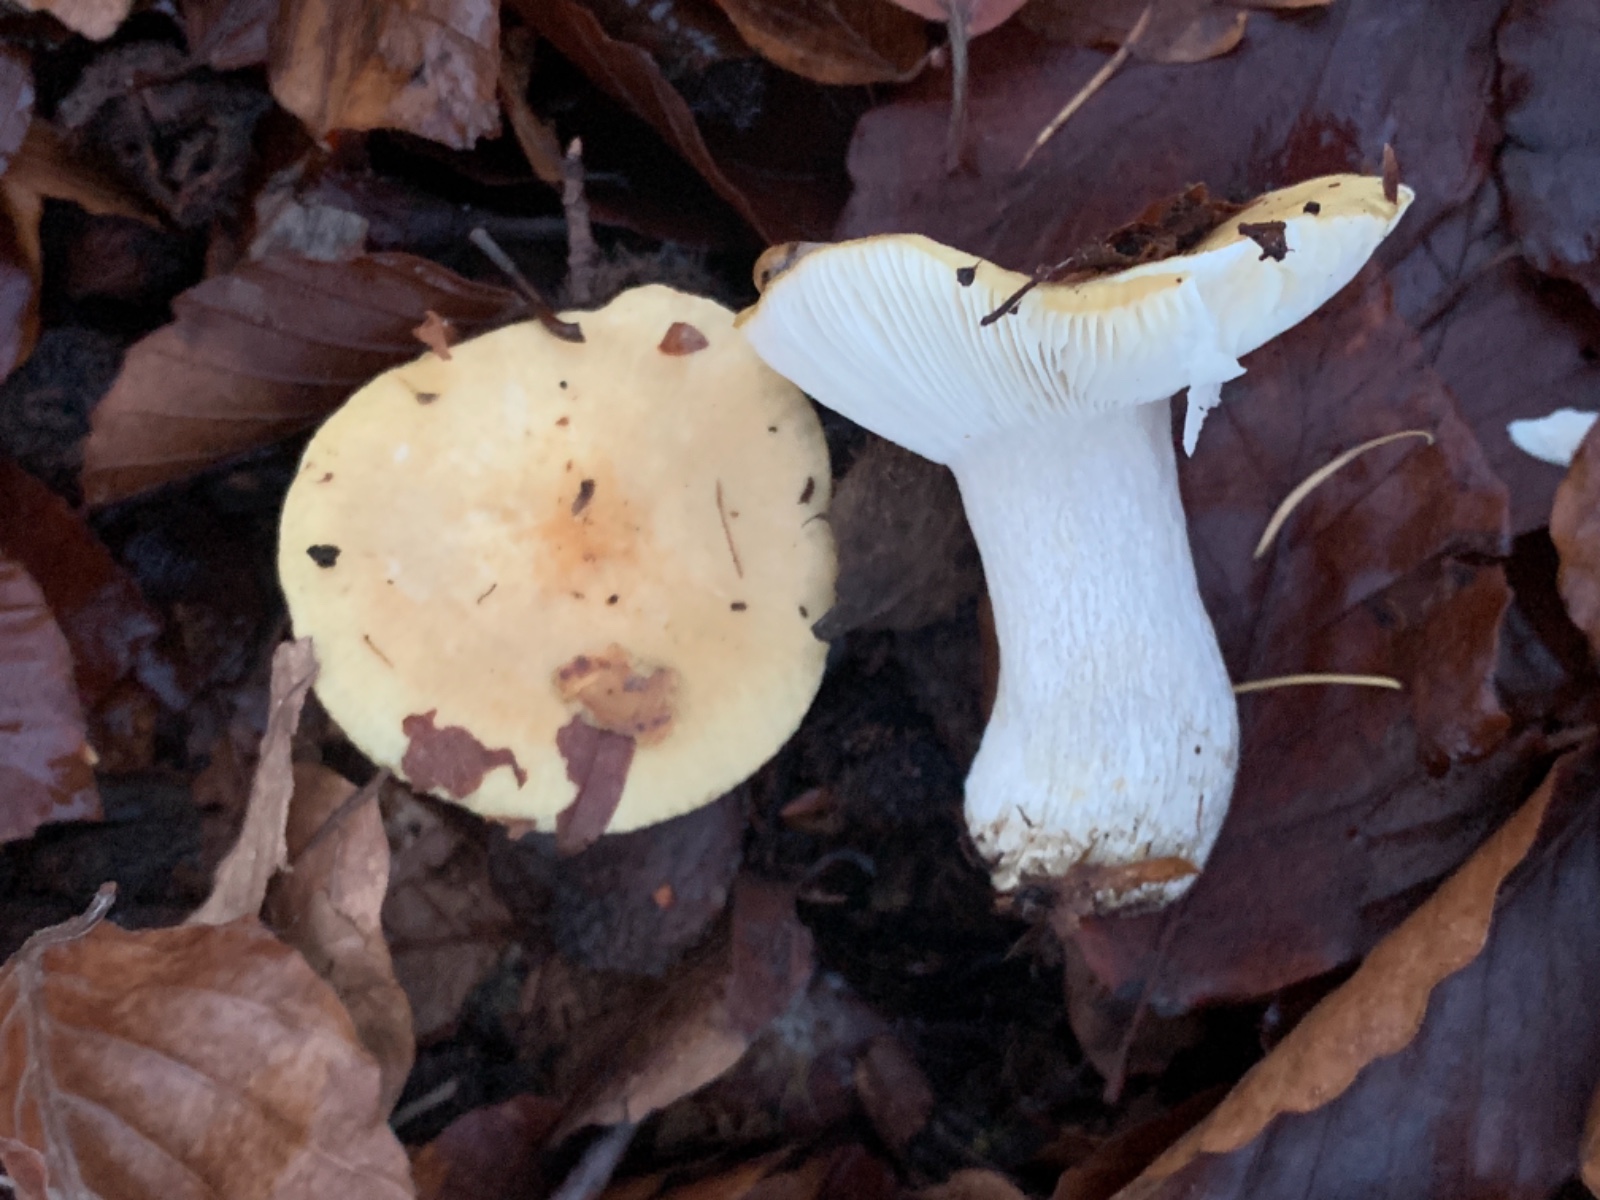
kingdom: Fungi
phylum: Basidiomycota
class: Agaricomycetes
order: Russulales
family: Russulaceae
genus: Russula
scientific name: Russula ochroleuca
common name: okkergul skørhat
